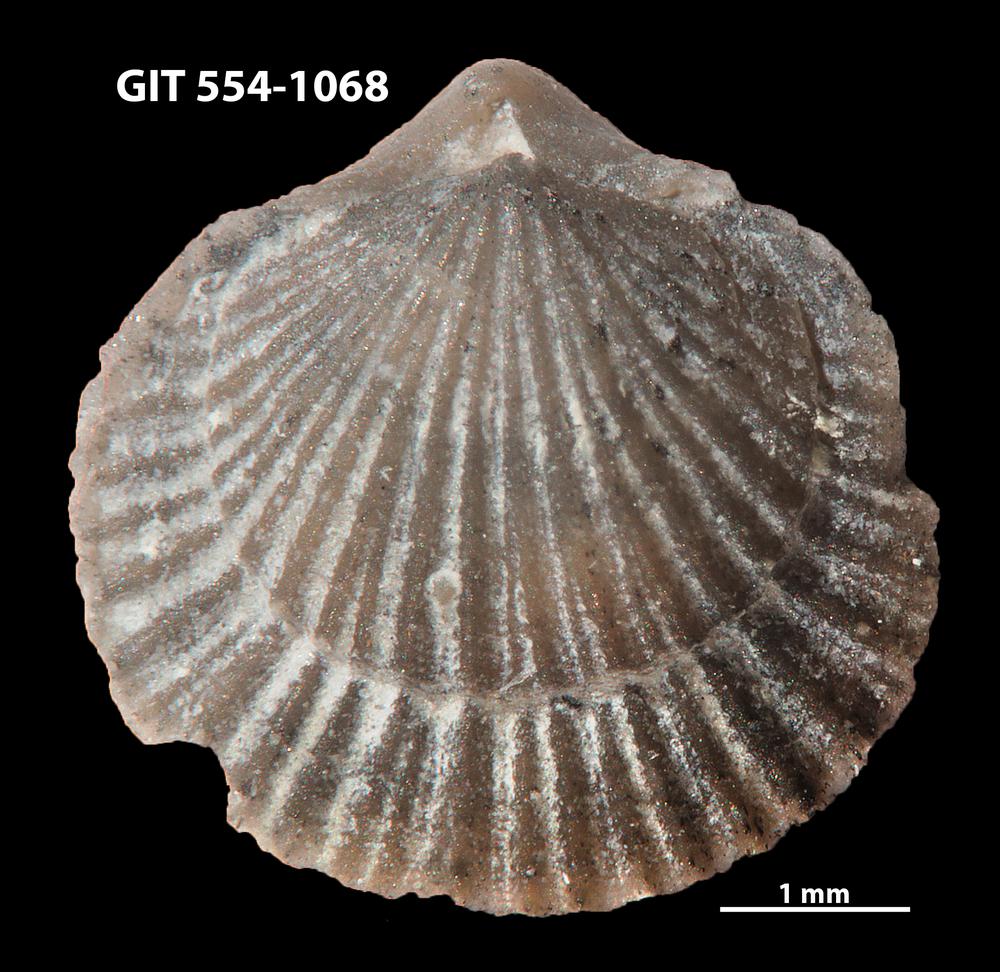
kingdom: Animalia
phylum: Brachiopoda
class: Rhynchonellata
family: Rhipidomellidae
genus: Mendacella
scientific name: Mendacella circularis
